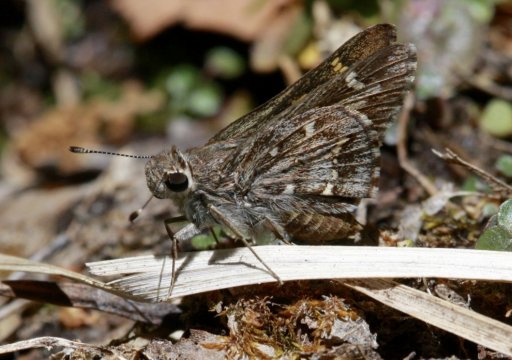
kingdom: Animalia
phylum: Arthropoda
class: Insecta
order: Lepidoptera
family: Hesperiidae
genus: Atrytonopsis
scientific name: Atrytonopsis python
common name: Python Skipper
